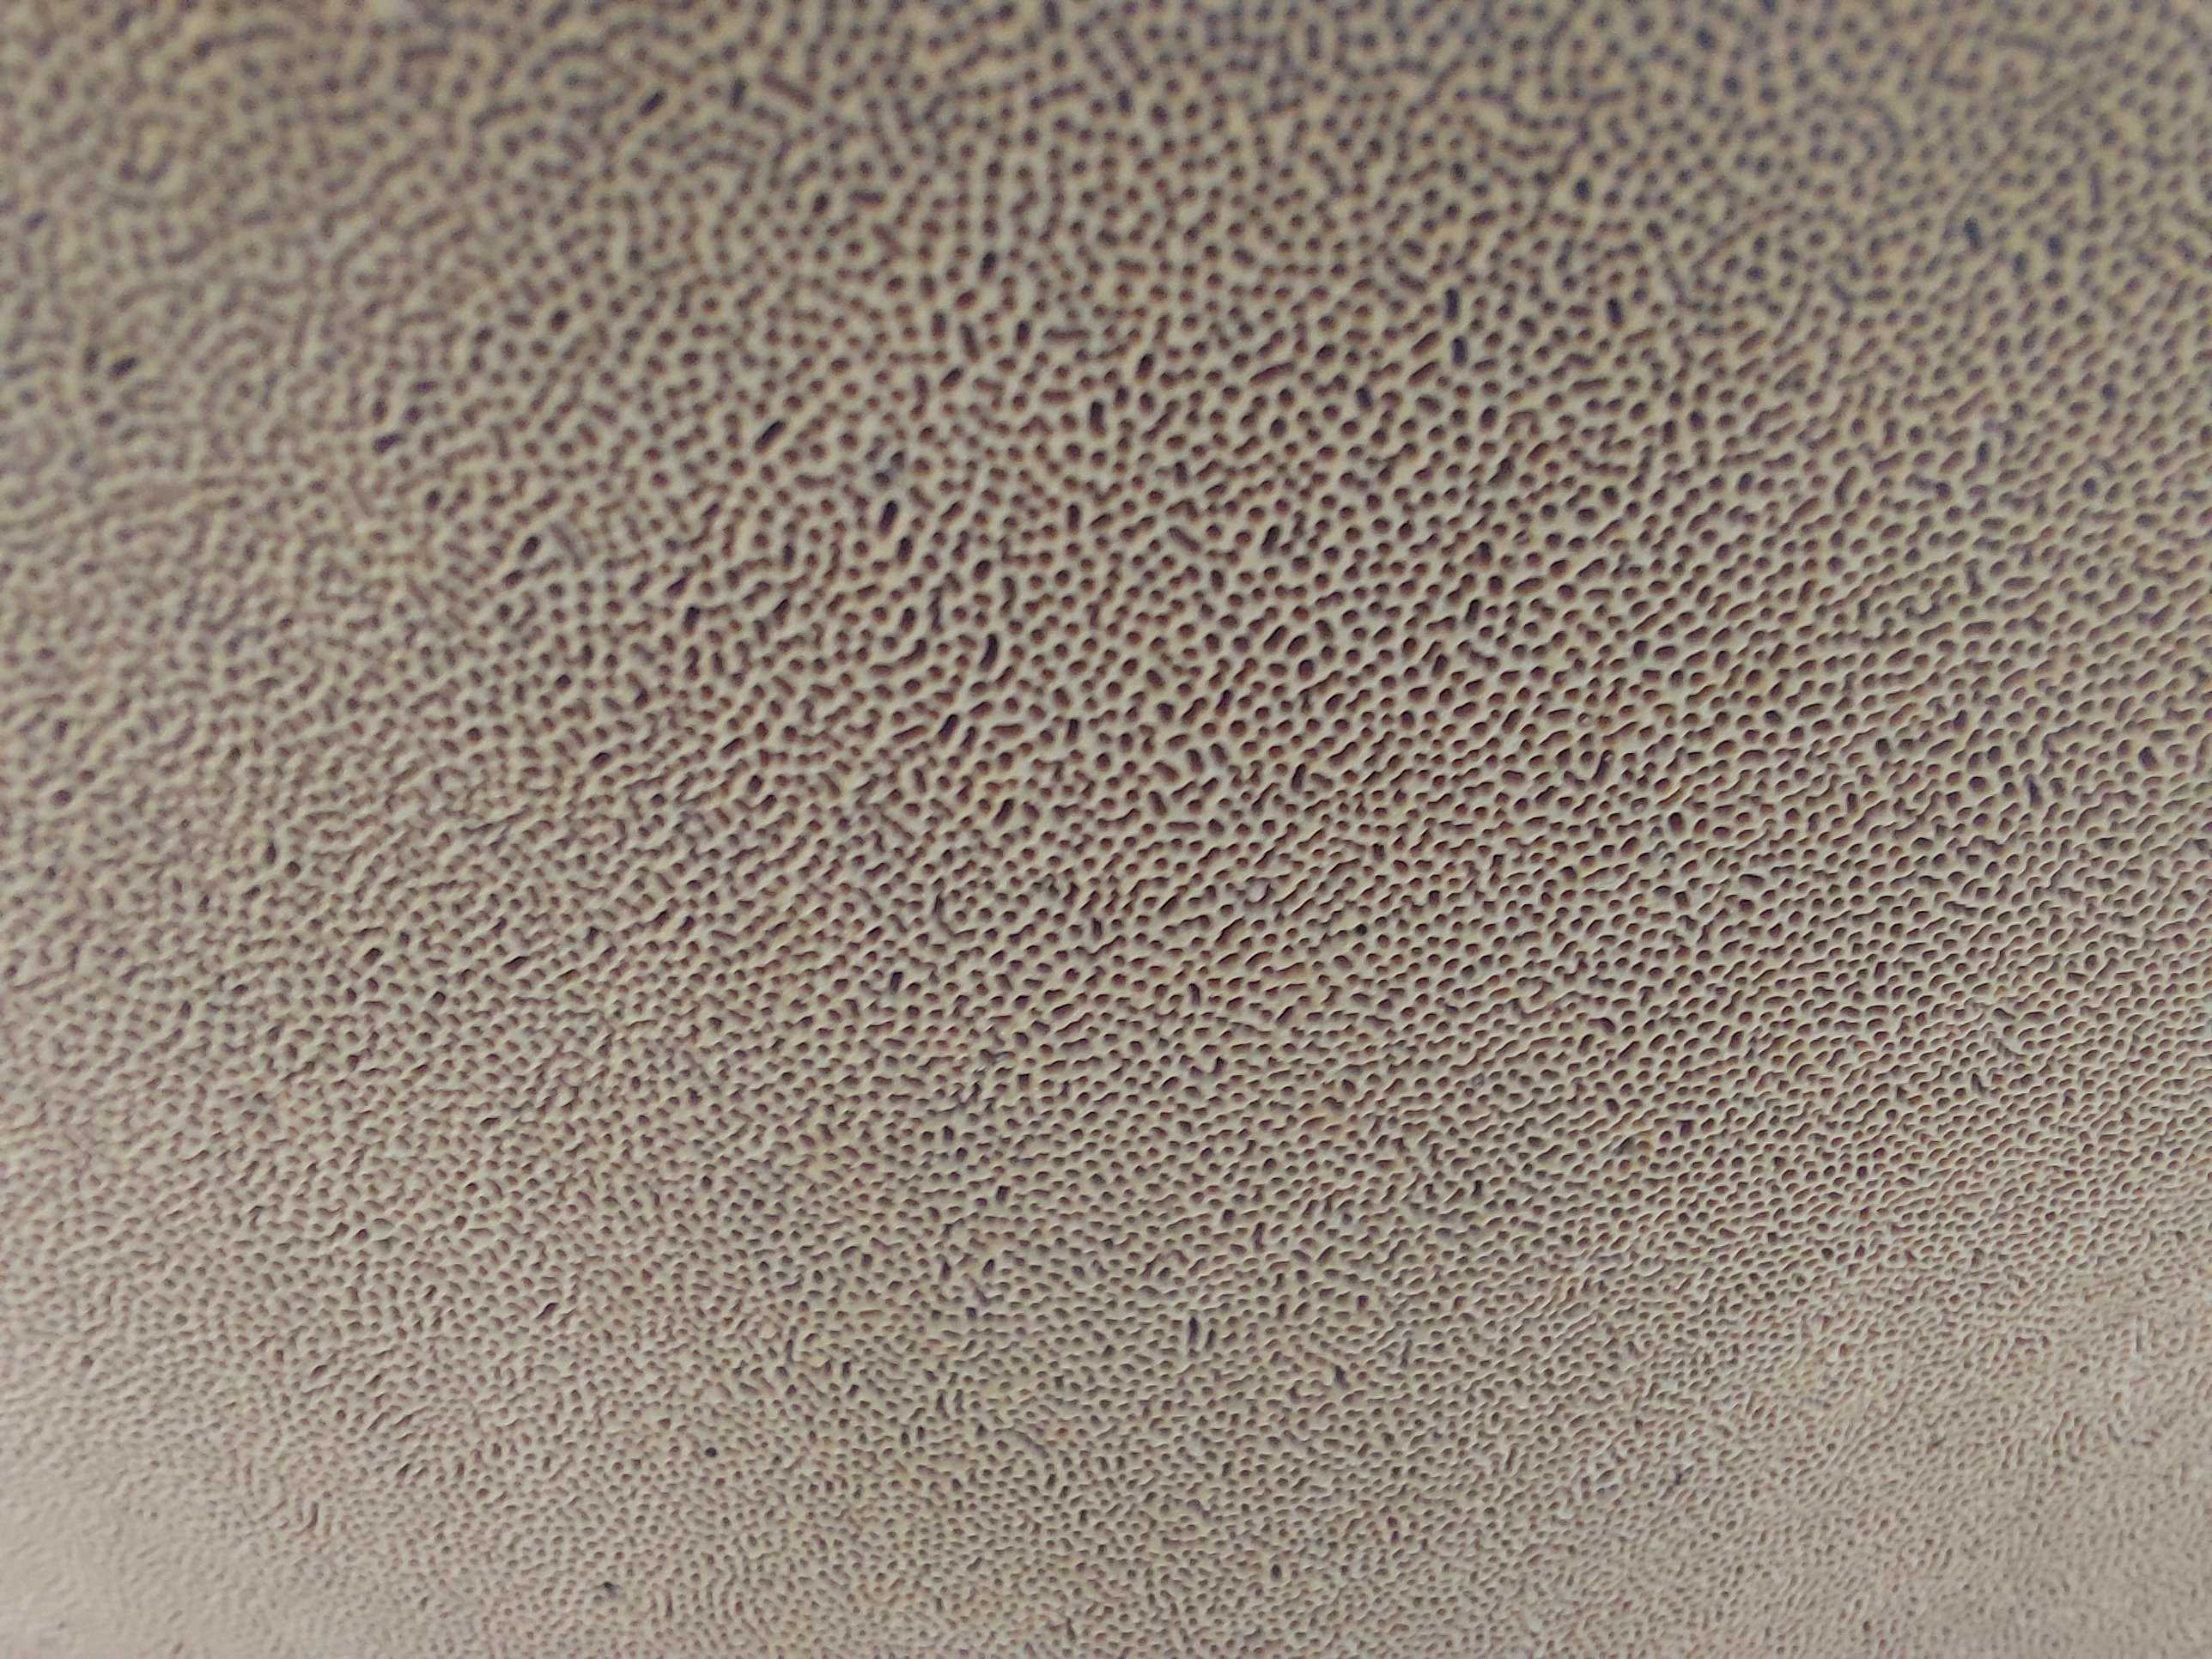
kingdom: Fungi
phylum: Basidiomycota
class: Agaricomycetes
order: Polyporales
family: Fomitopsidaceae
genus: Fomitopsis
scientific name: Fomitopsis pinicola
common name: randbæltet hovporesvamp
